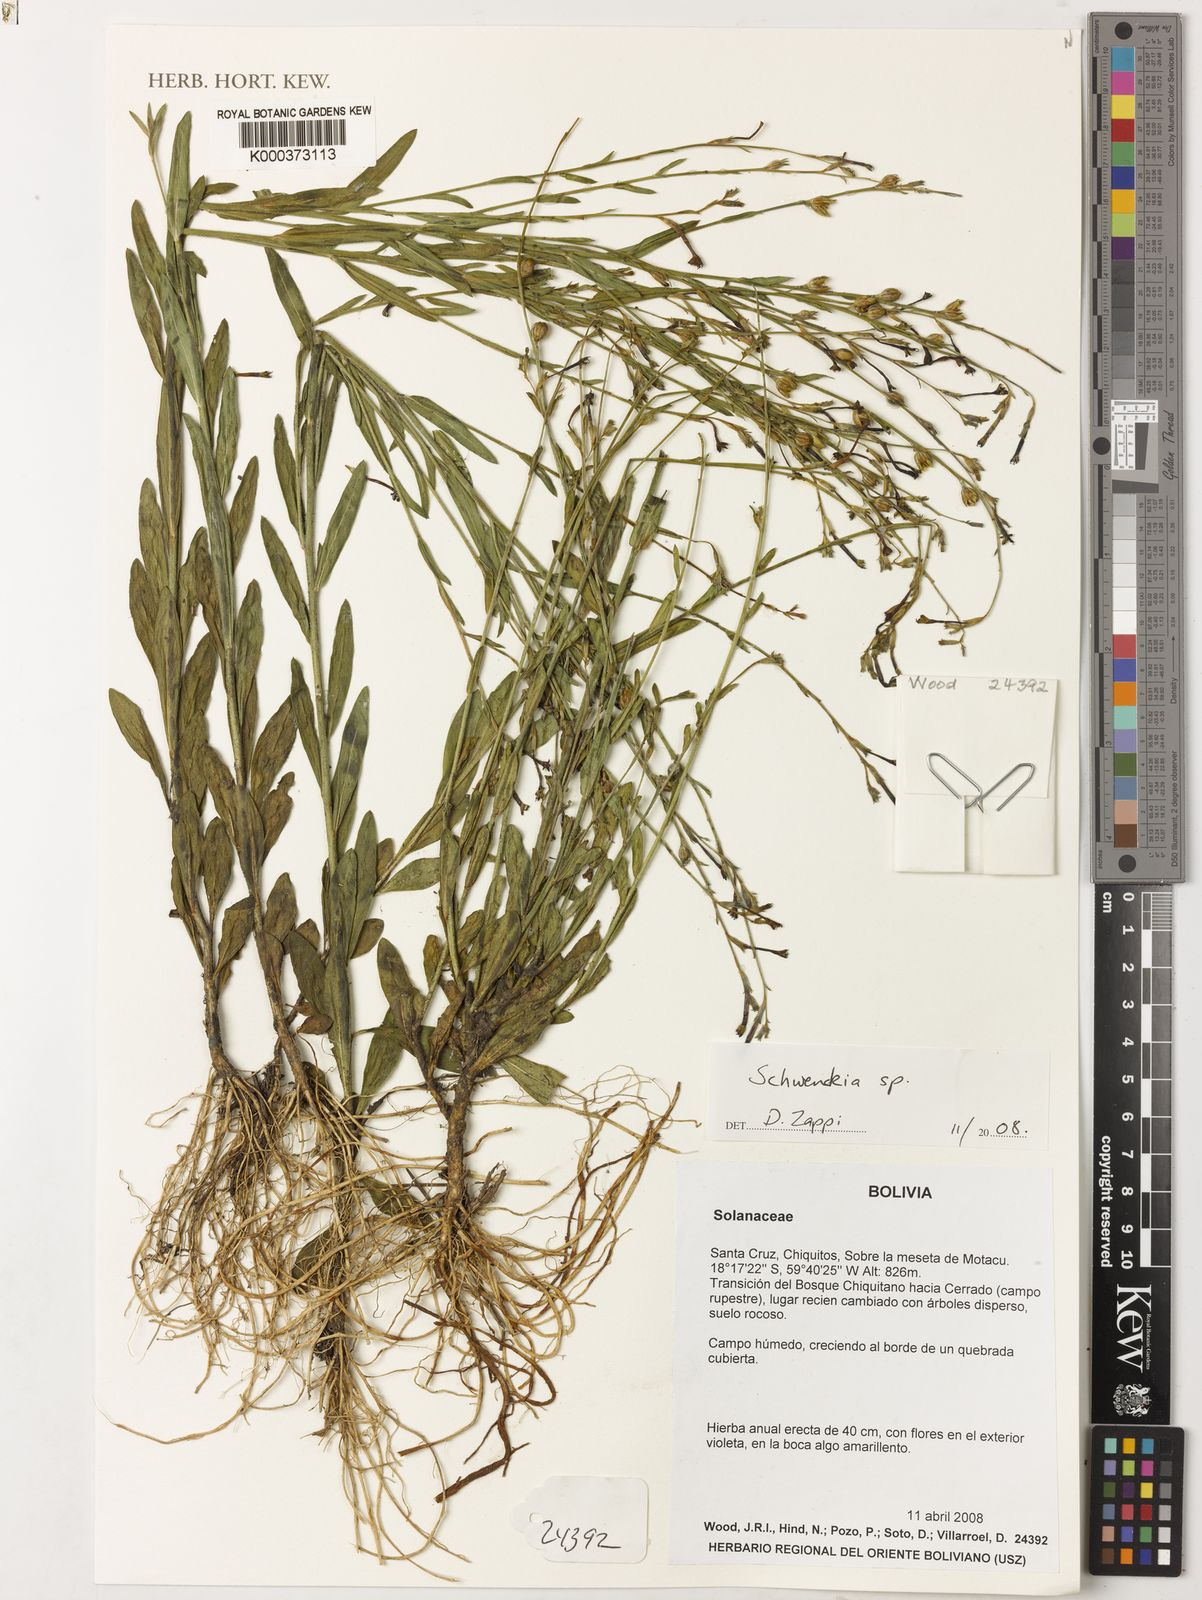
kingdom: Plantae
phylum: Tracheophyta
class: Magnoliopsida
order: Solanales
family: Solanaceae
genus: Schwenckia
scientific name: Schwenckia
